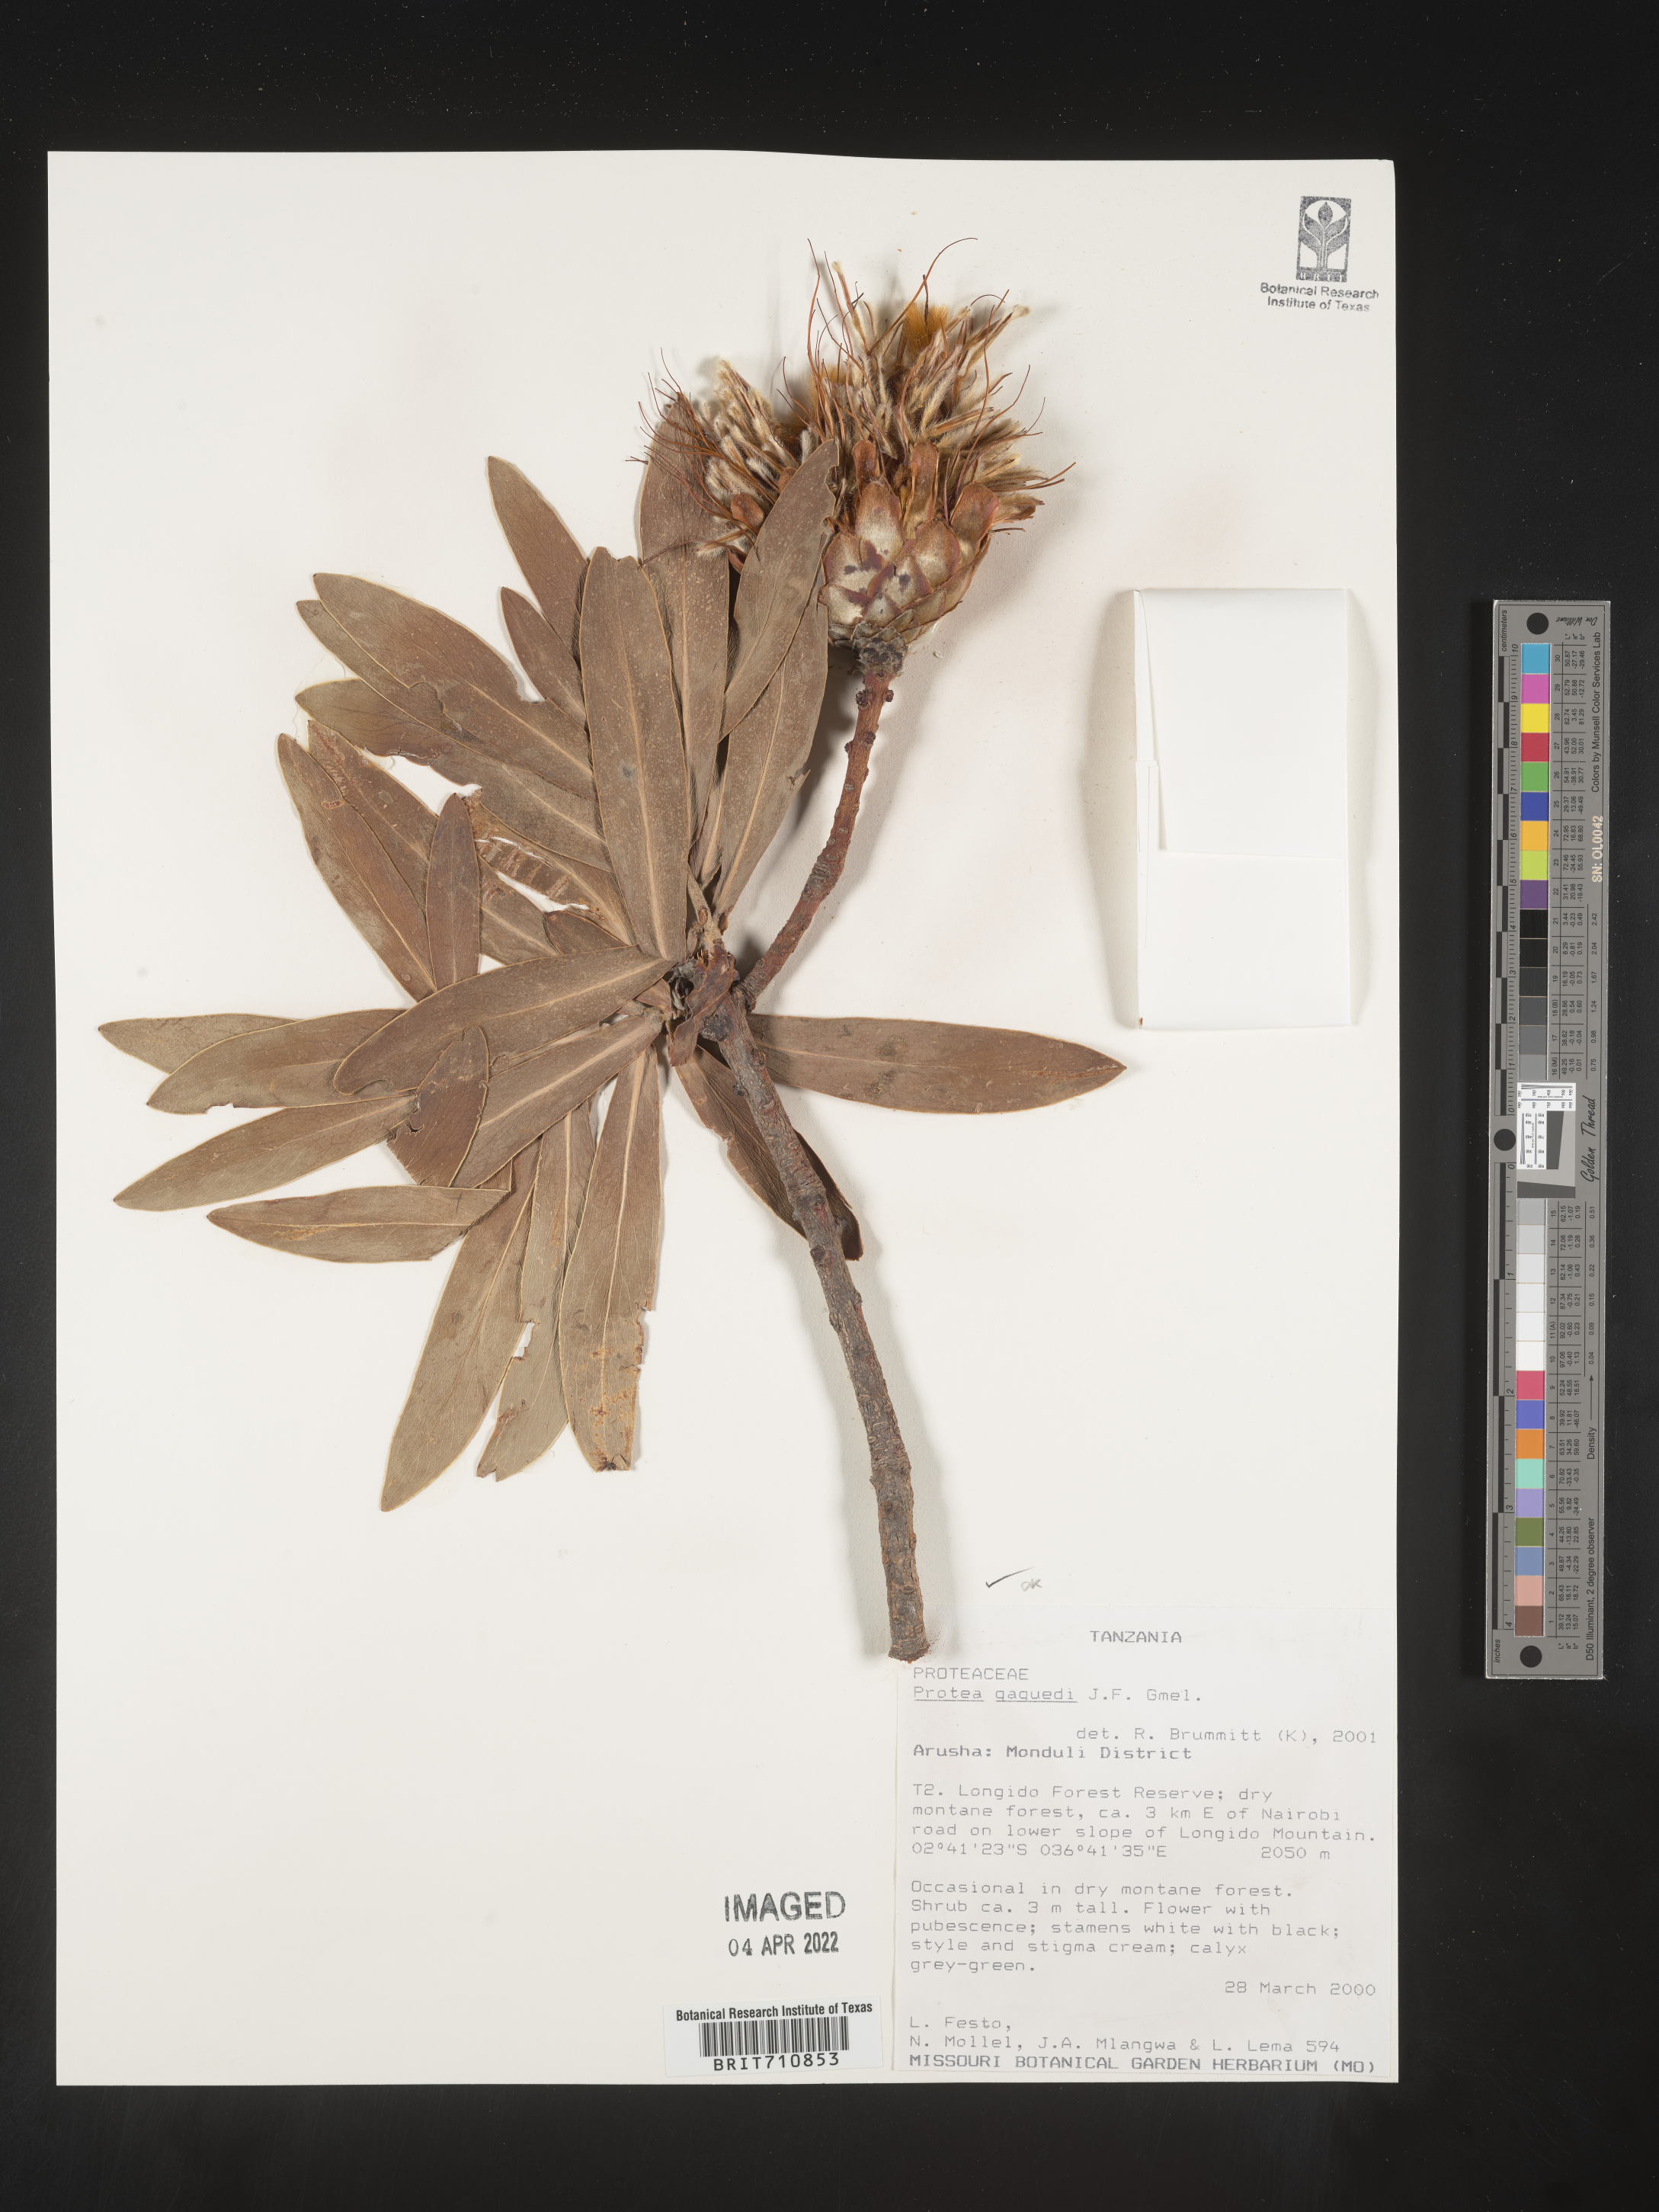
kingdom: Plantae
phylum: Tracheophyta
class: Magnoliopsida
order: Proteales
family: Proteaceae
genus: Protea
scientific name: Protea
